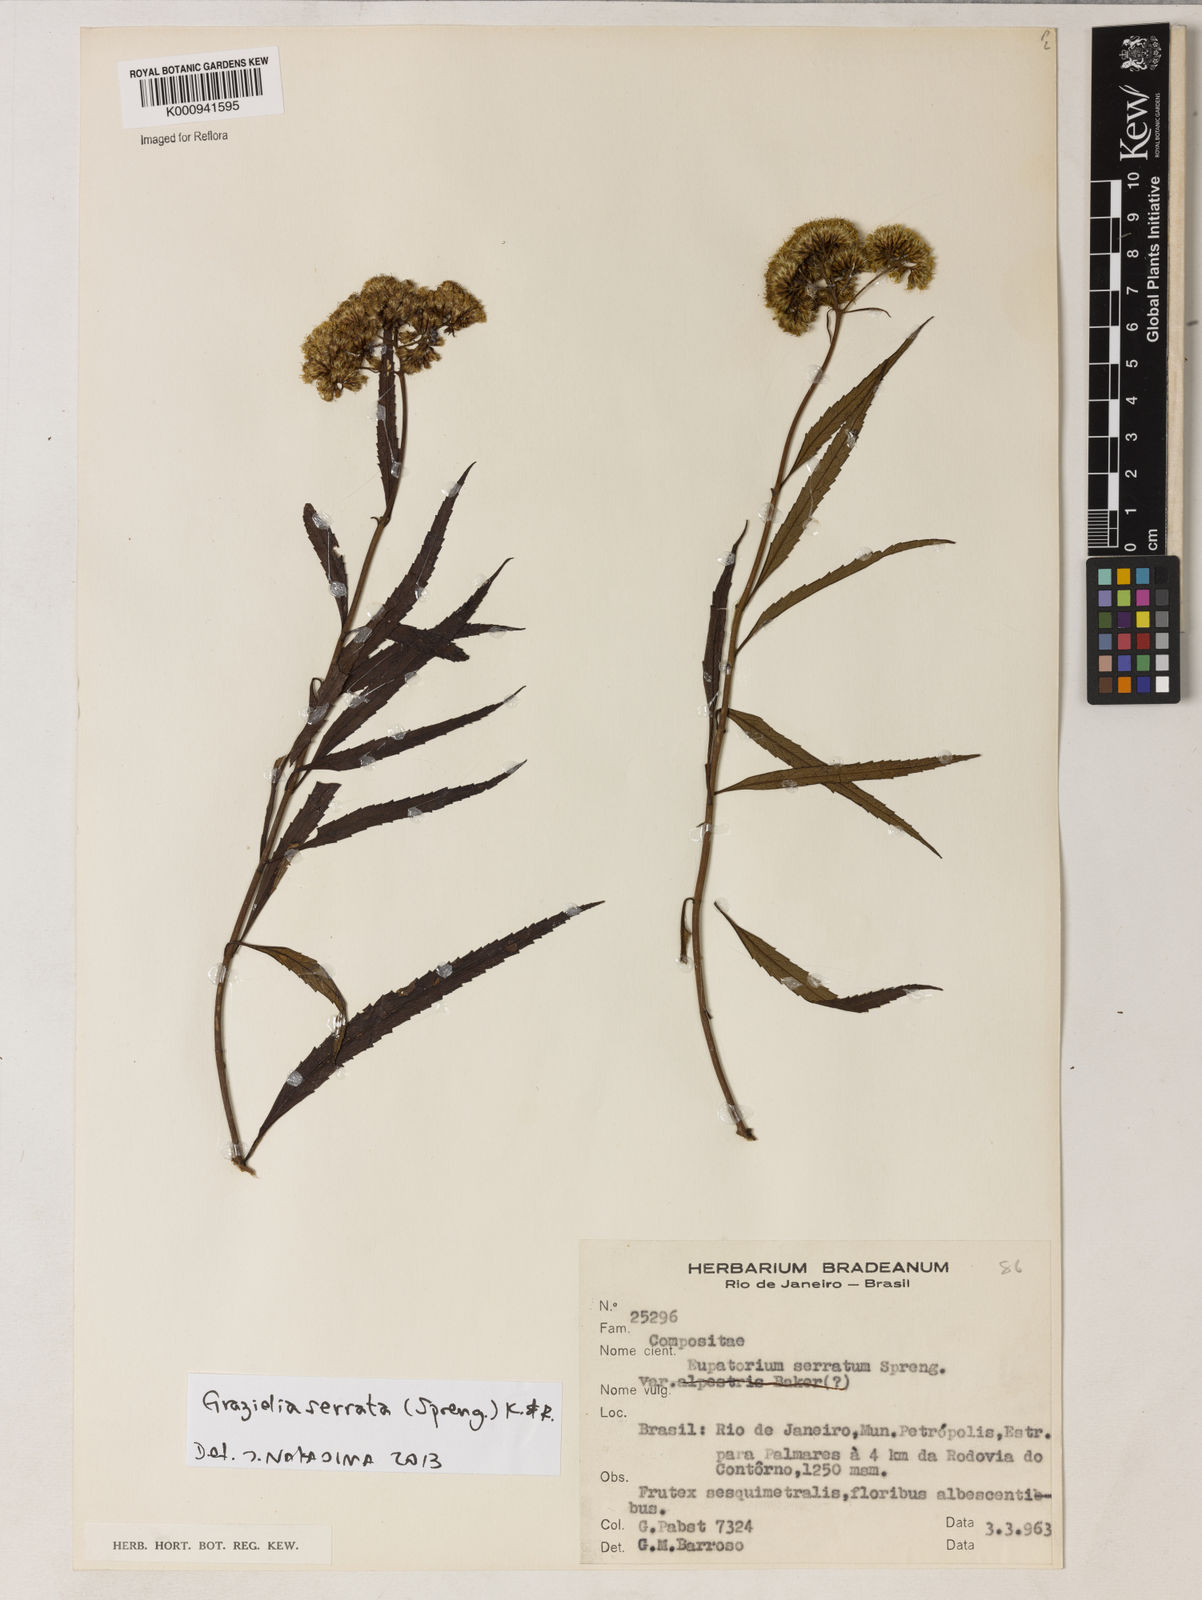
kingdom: Plantae
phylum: Tracheophyta
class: Magnoliopsida
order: Asterales
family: Asteraceae
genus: Grazielia
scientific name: Grazielia serrata
